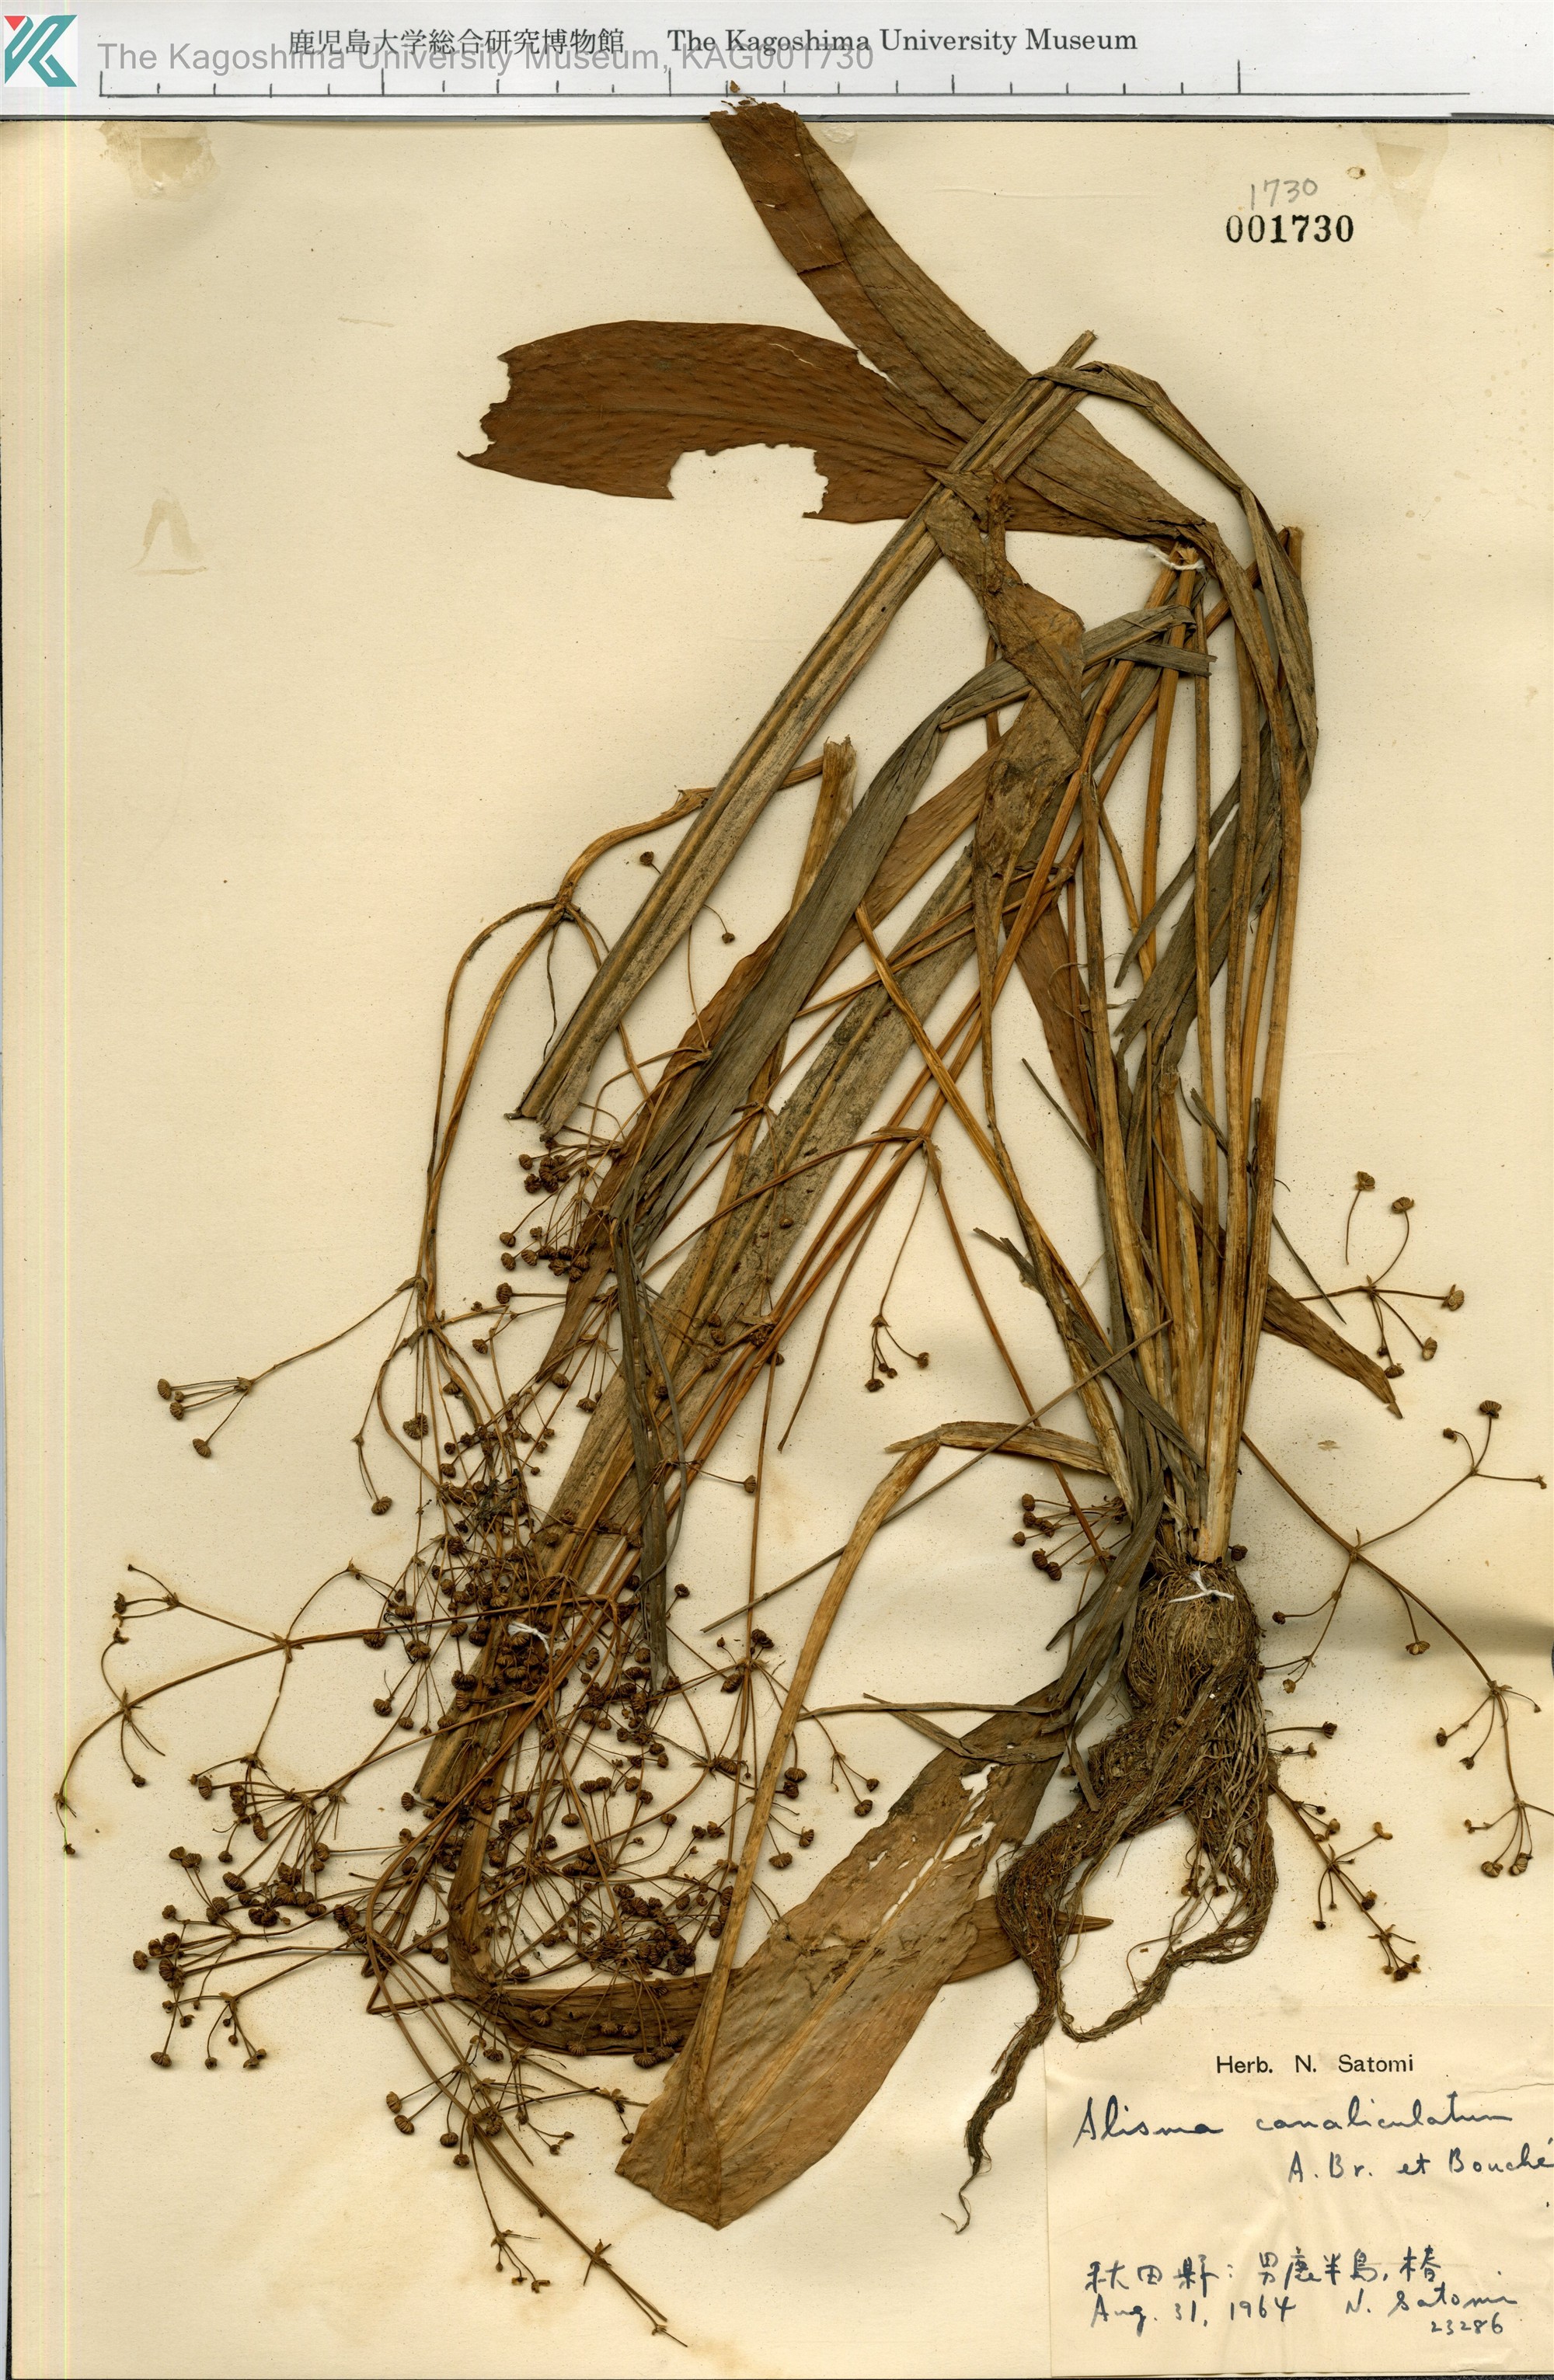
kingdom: Plantae
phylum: Tracheophyta
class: Liliopsida
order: Alismatales
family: Alismataceae
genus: Alisma
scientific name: Alisma canaliculatum
